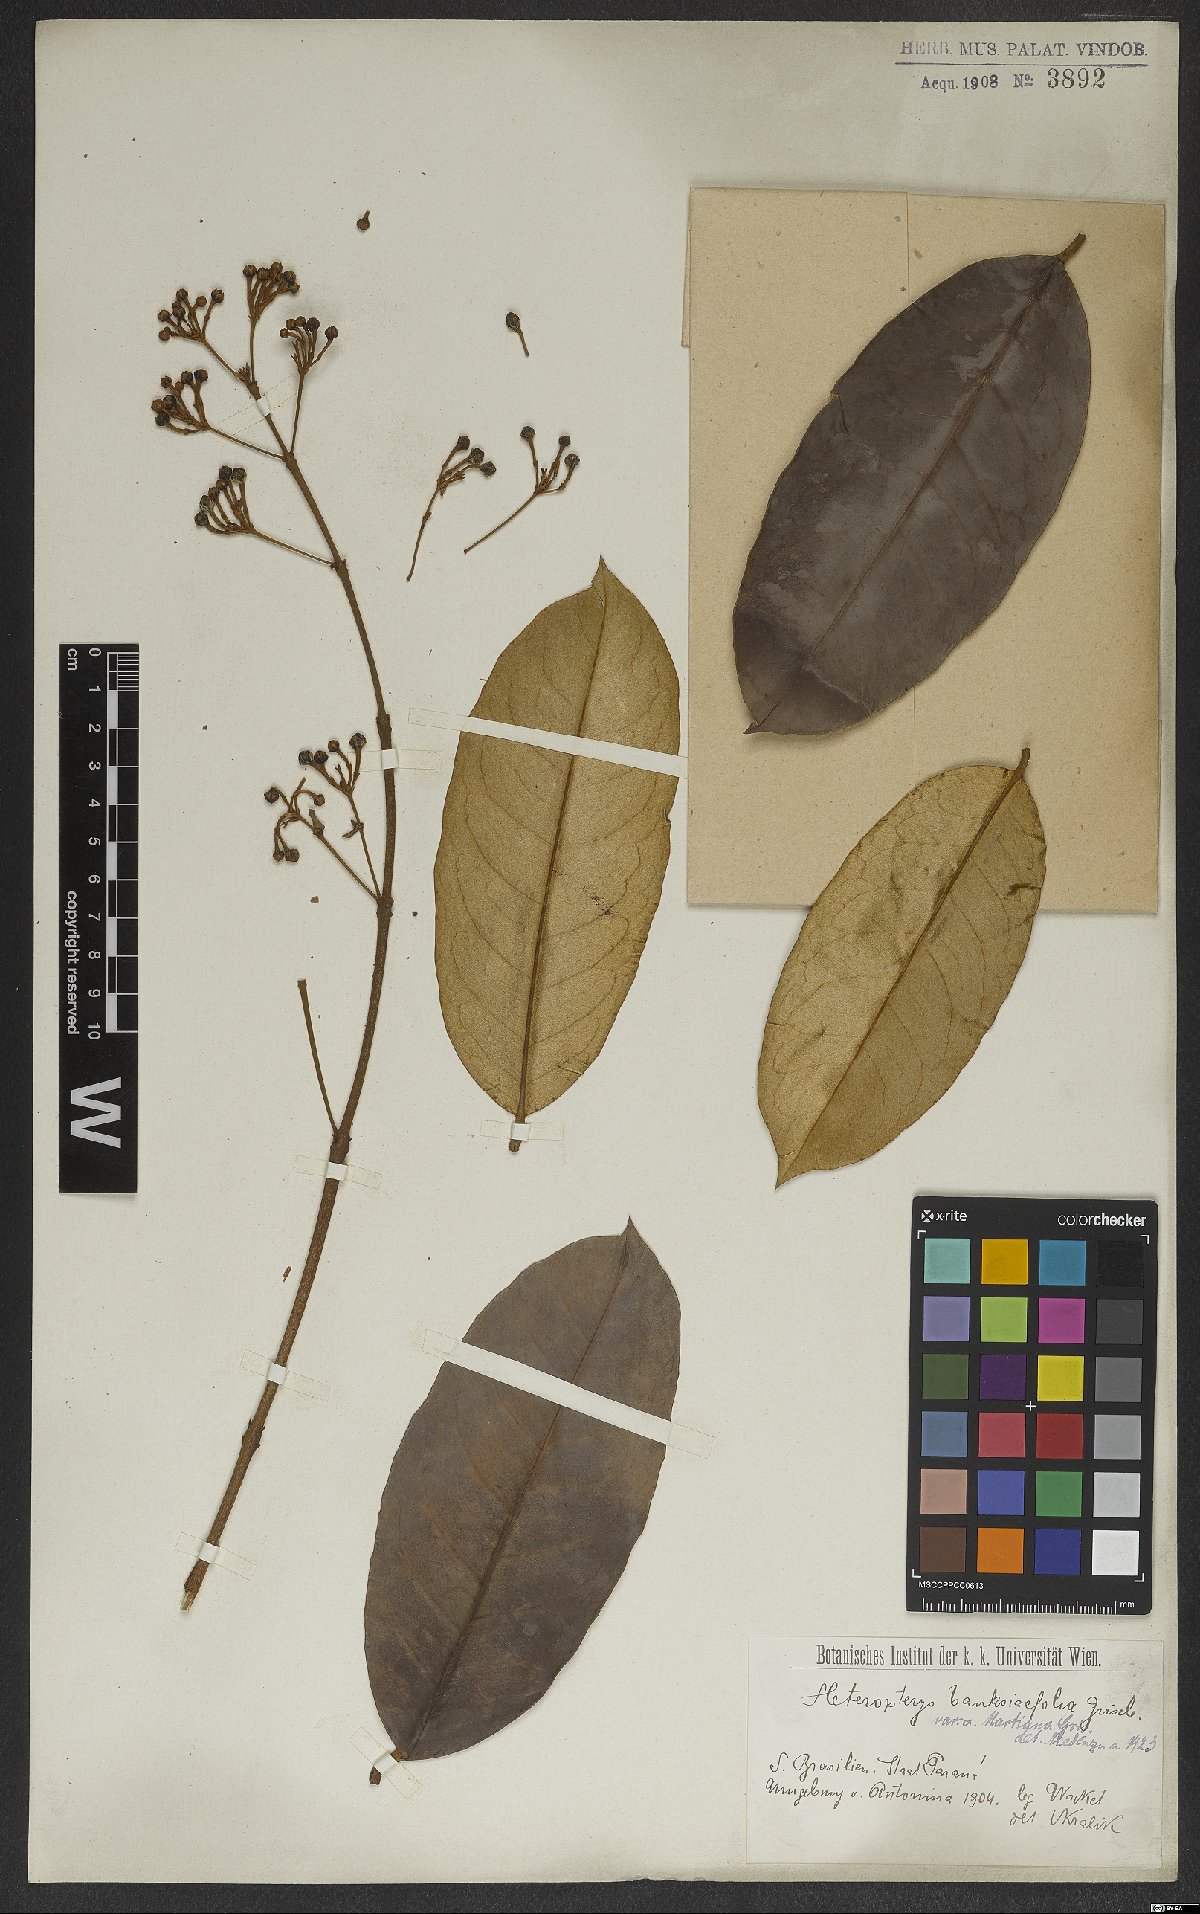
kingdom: Plantae
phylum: Tracheophyta
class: Magnoliopsida
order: Malpighiales
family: Malpighiaceae
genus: Heteropterys
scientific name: Heteropterys banksiifolia
